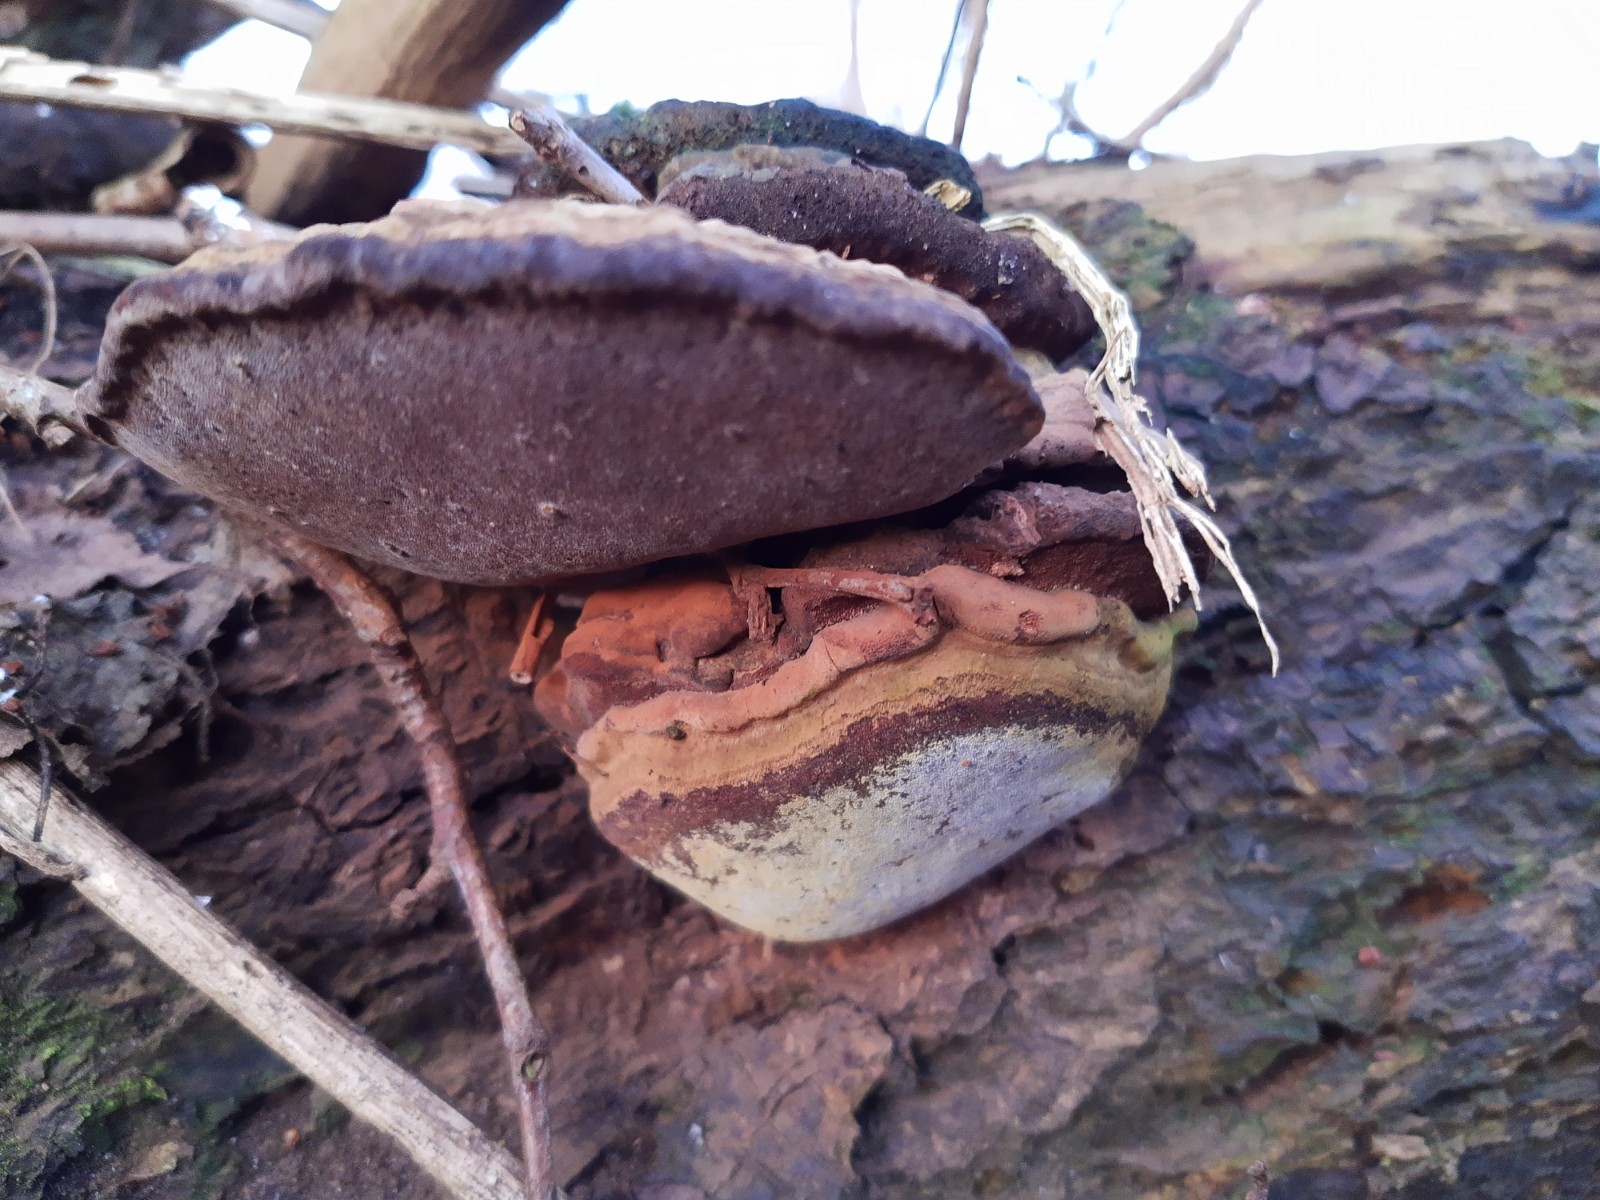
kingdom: Fungi
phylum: Basidiomycota
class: Agaricomycetes
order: Polyporales
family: Polyporaceae
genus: Ganoderma
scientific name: Ganoderma
